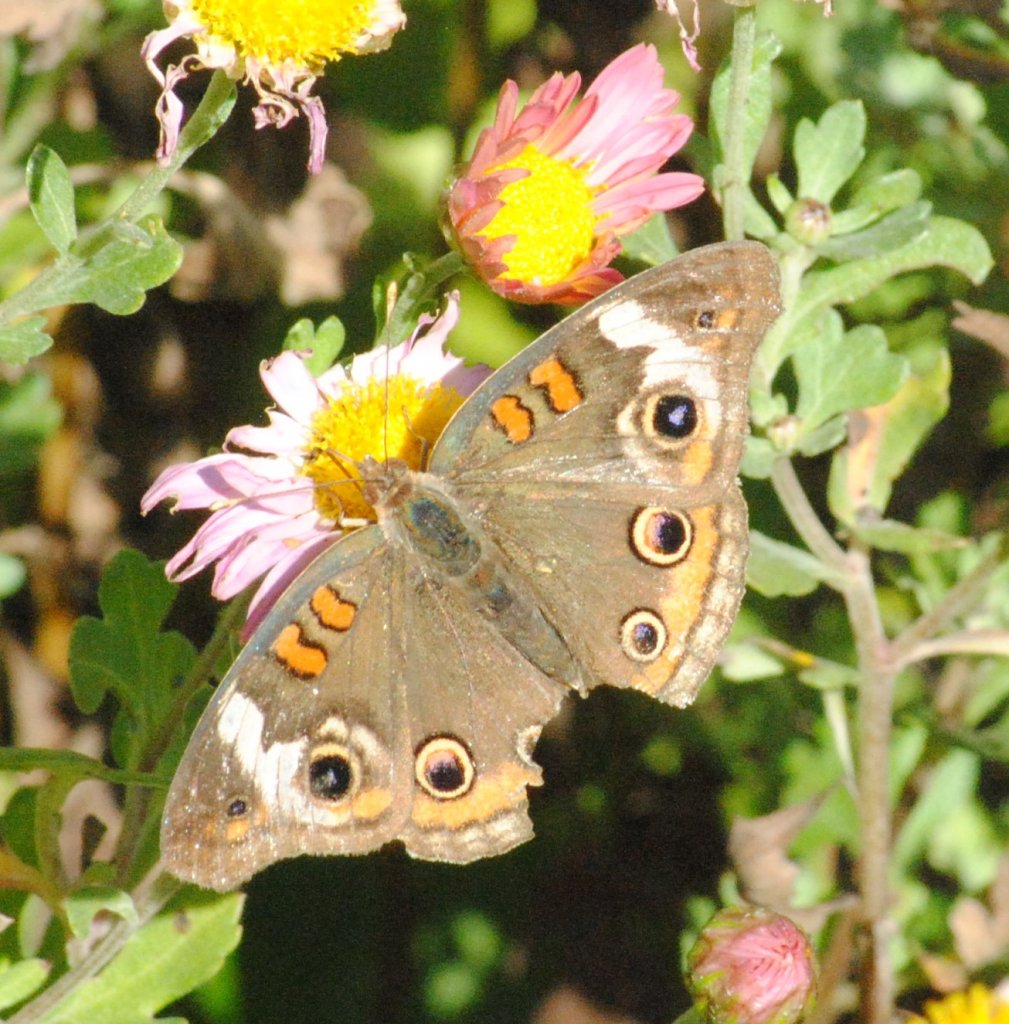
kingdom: Animalia
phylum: Arthropoda
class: Insecta
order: Lepidoptera
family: Nymphalidae
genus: Junonia
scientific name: Junonia coenia
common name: Common Buckeye
